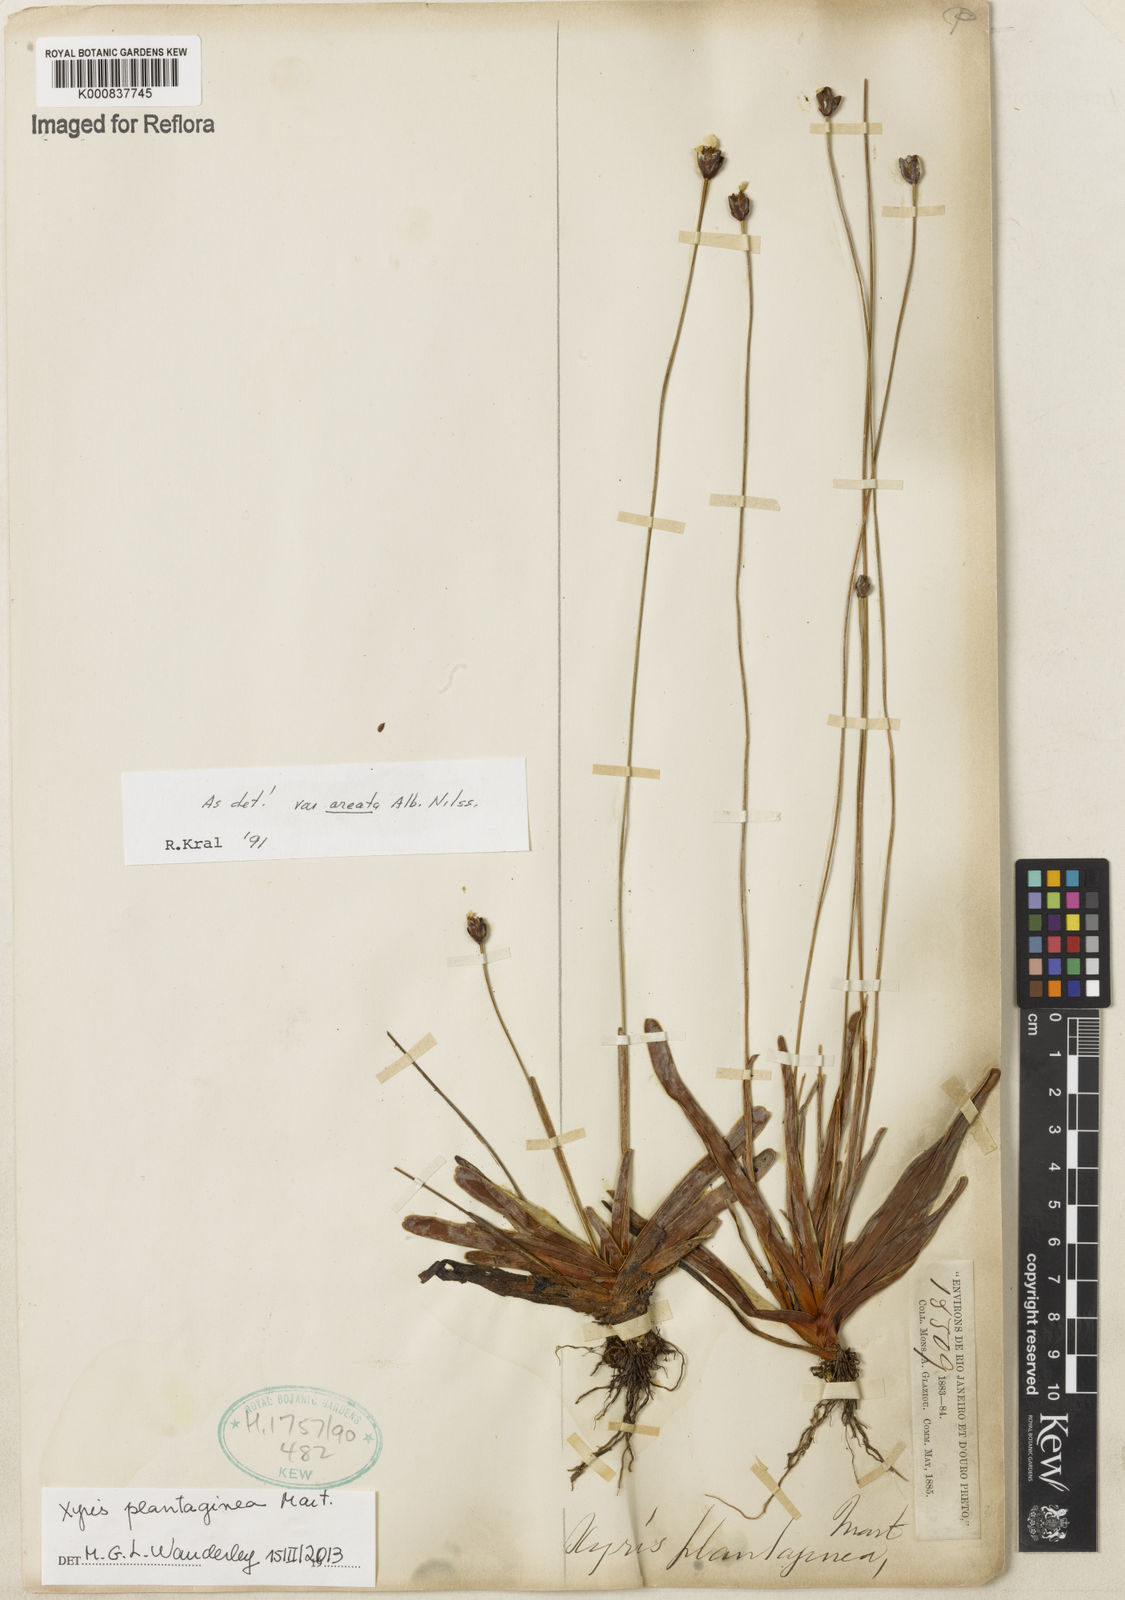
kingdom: Plantae
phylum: Tracheophyta
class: Liliopsida
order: Poales
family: Xyridaceae
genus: Xyris
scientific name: Xyris plantaginea
